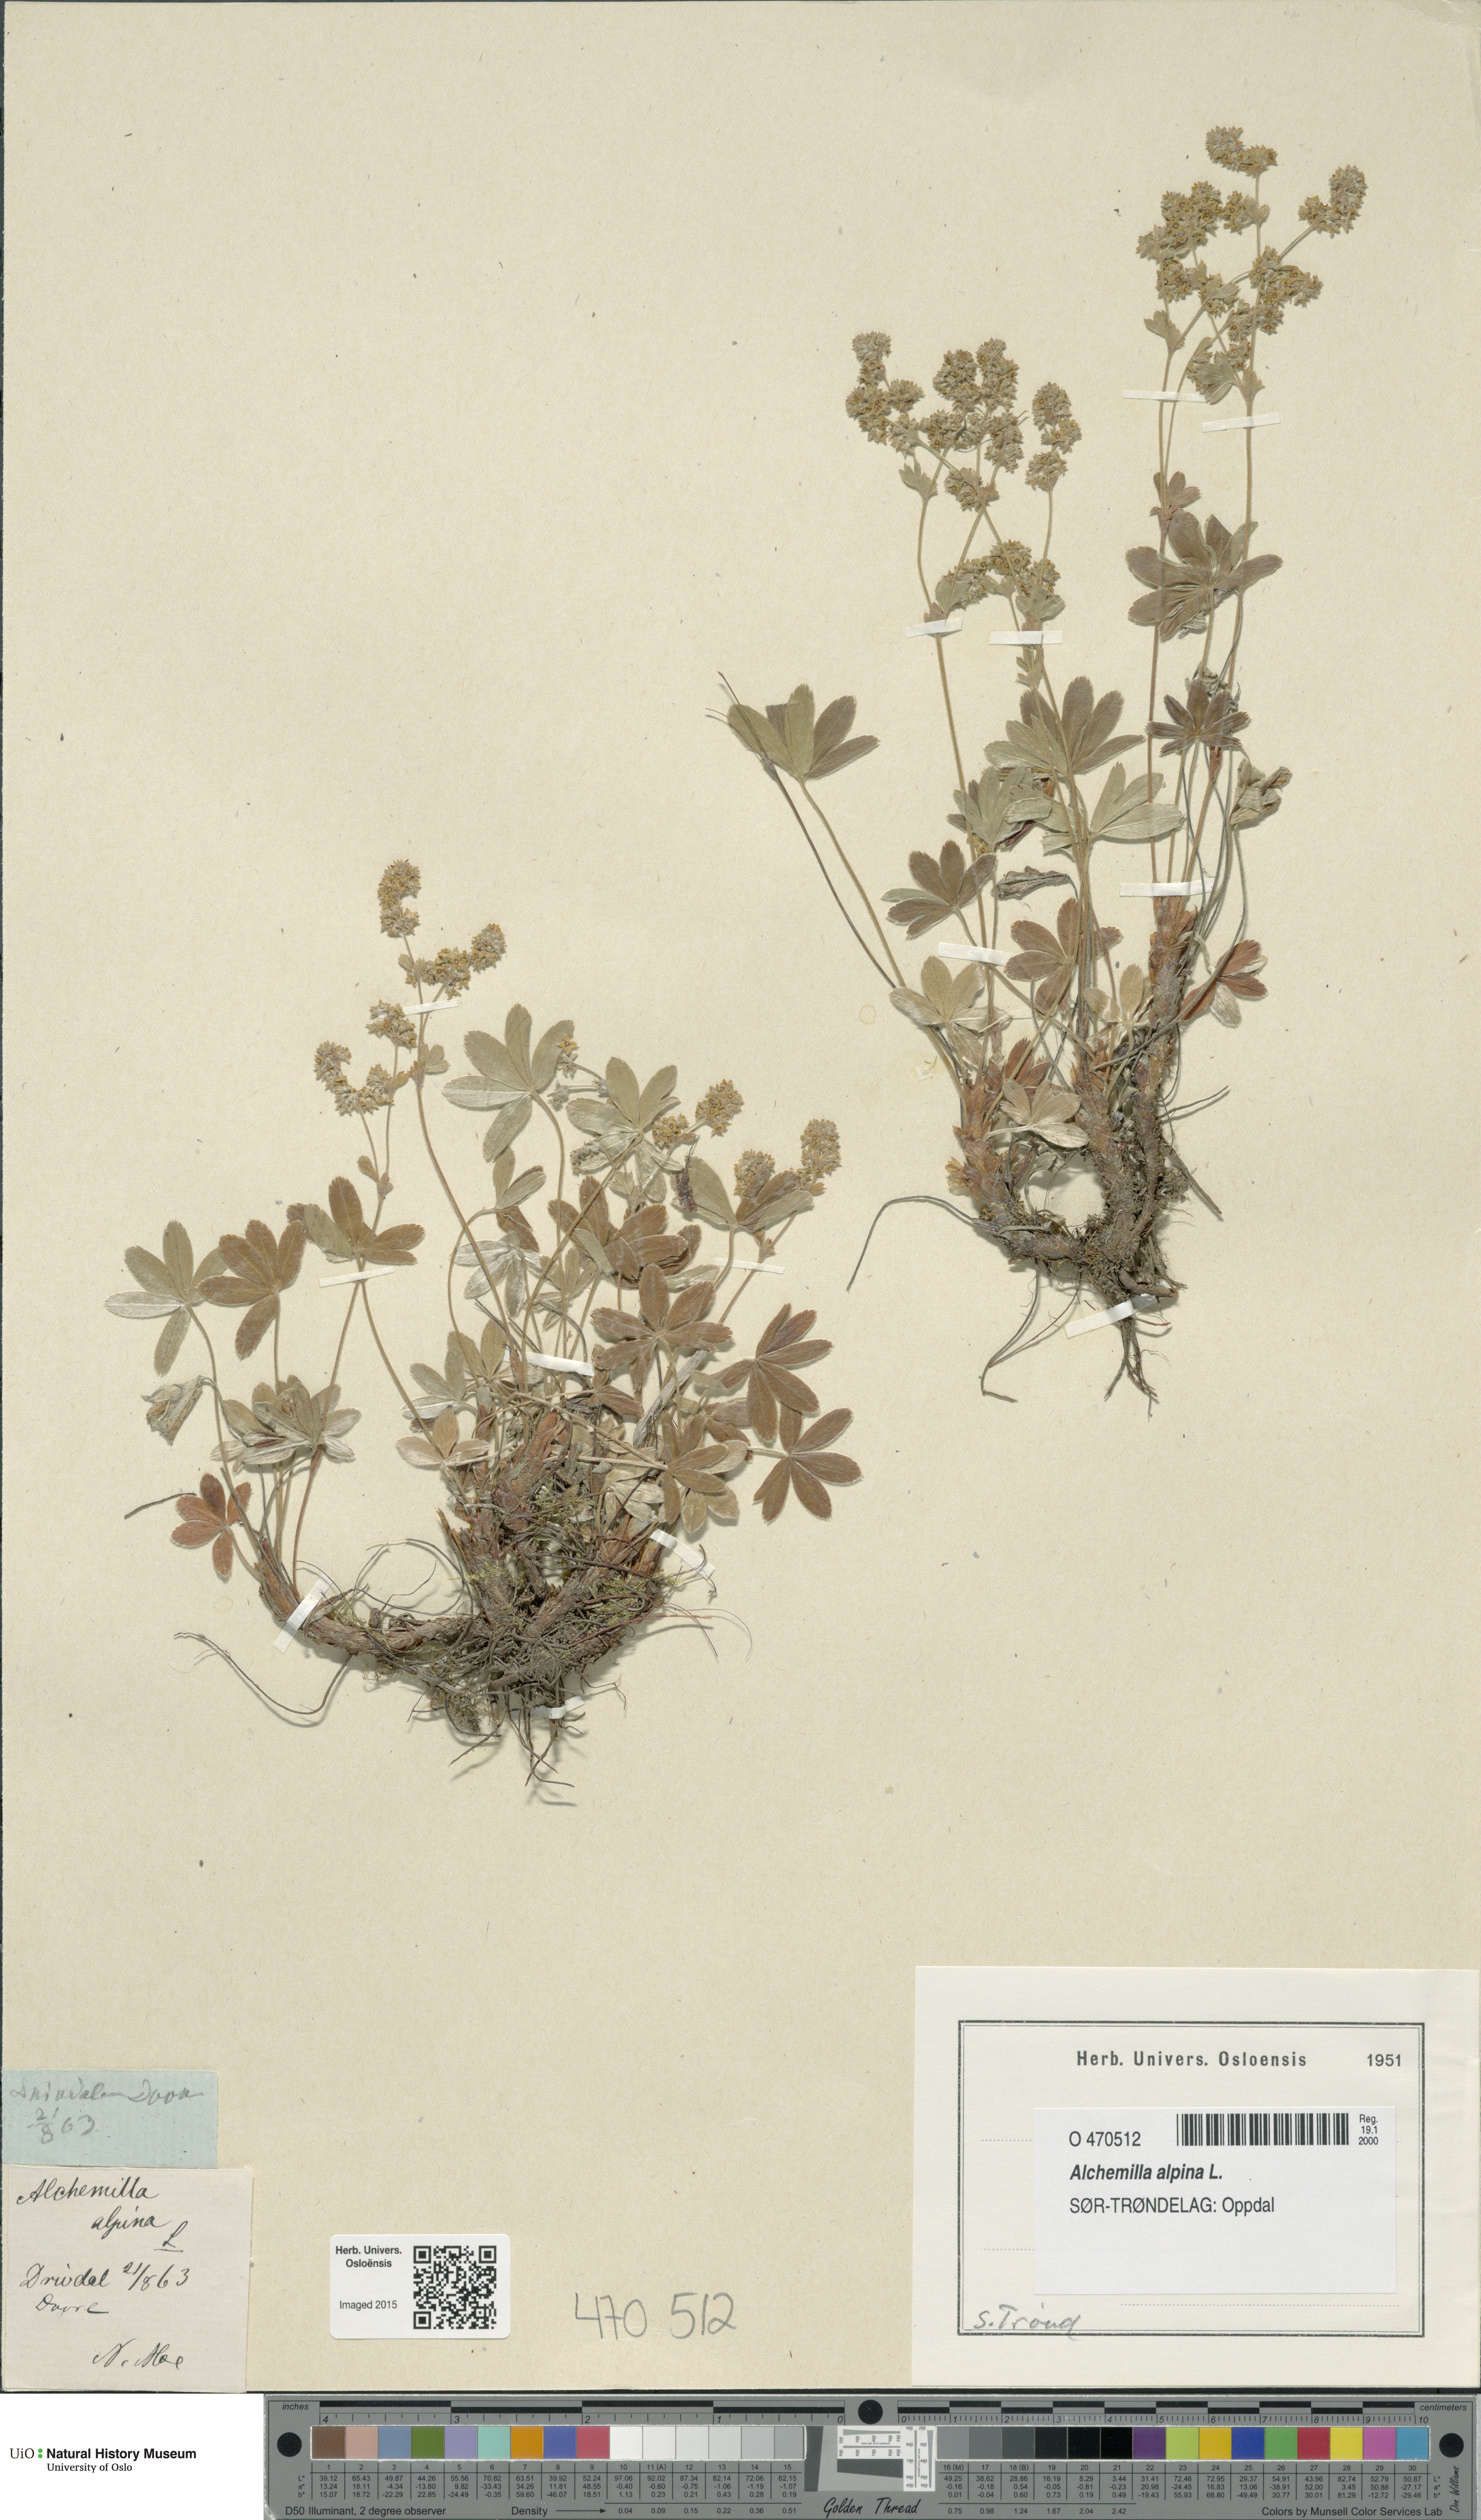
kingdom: Plantae
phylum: Tracheophyta
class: Magnoliopsida
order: Rosales
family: Rosaceae
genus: Alchemilla
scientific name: Alchemilla alpina
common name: Alpine lady's-mantle
